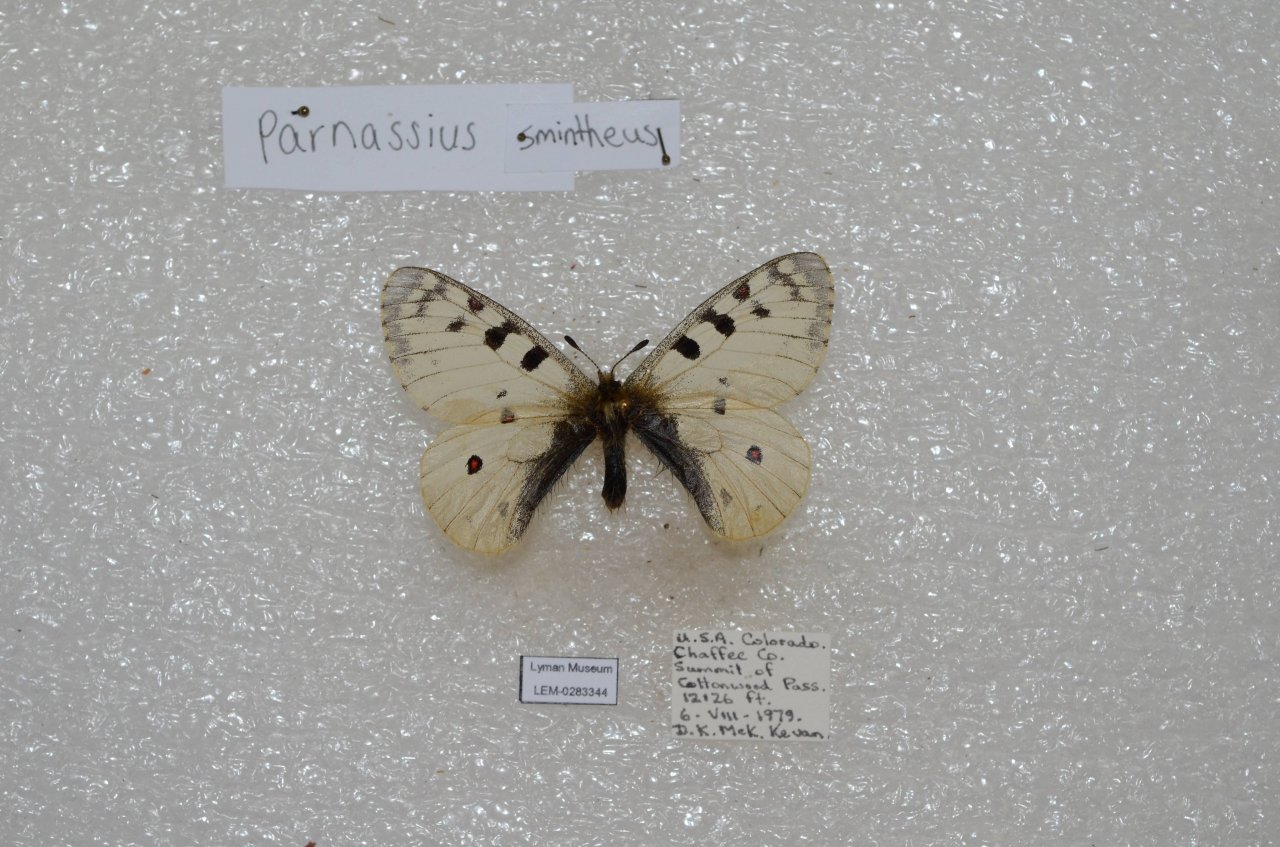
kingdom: Animalia
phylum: Arthropoda
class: Insecta
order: Lepidoptera
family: Papilionidae
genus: Parnassius
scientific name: Parnassius smintheus
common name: Rocky Mountain Parnassian
